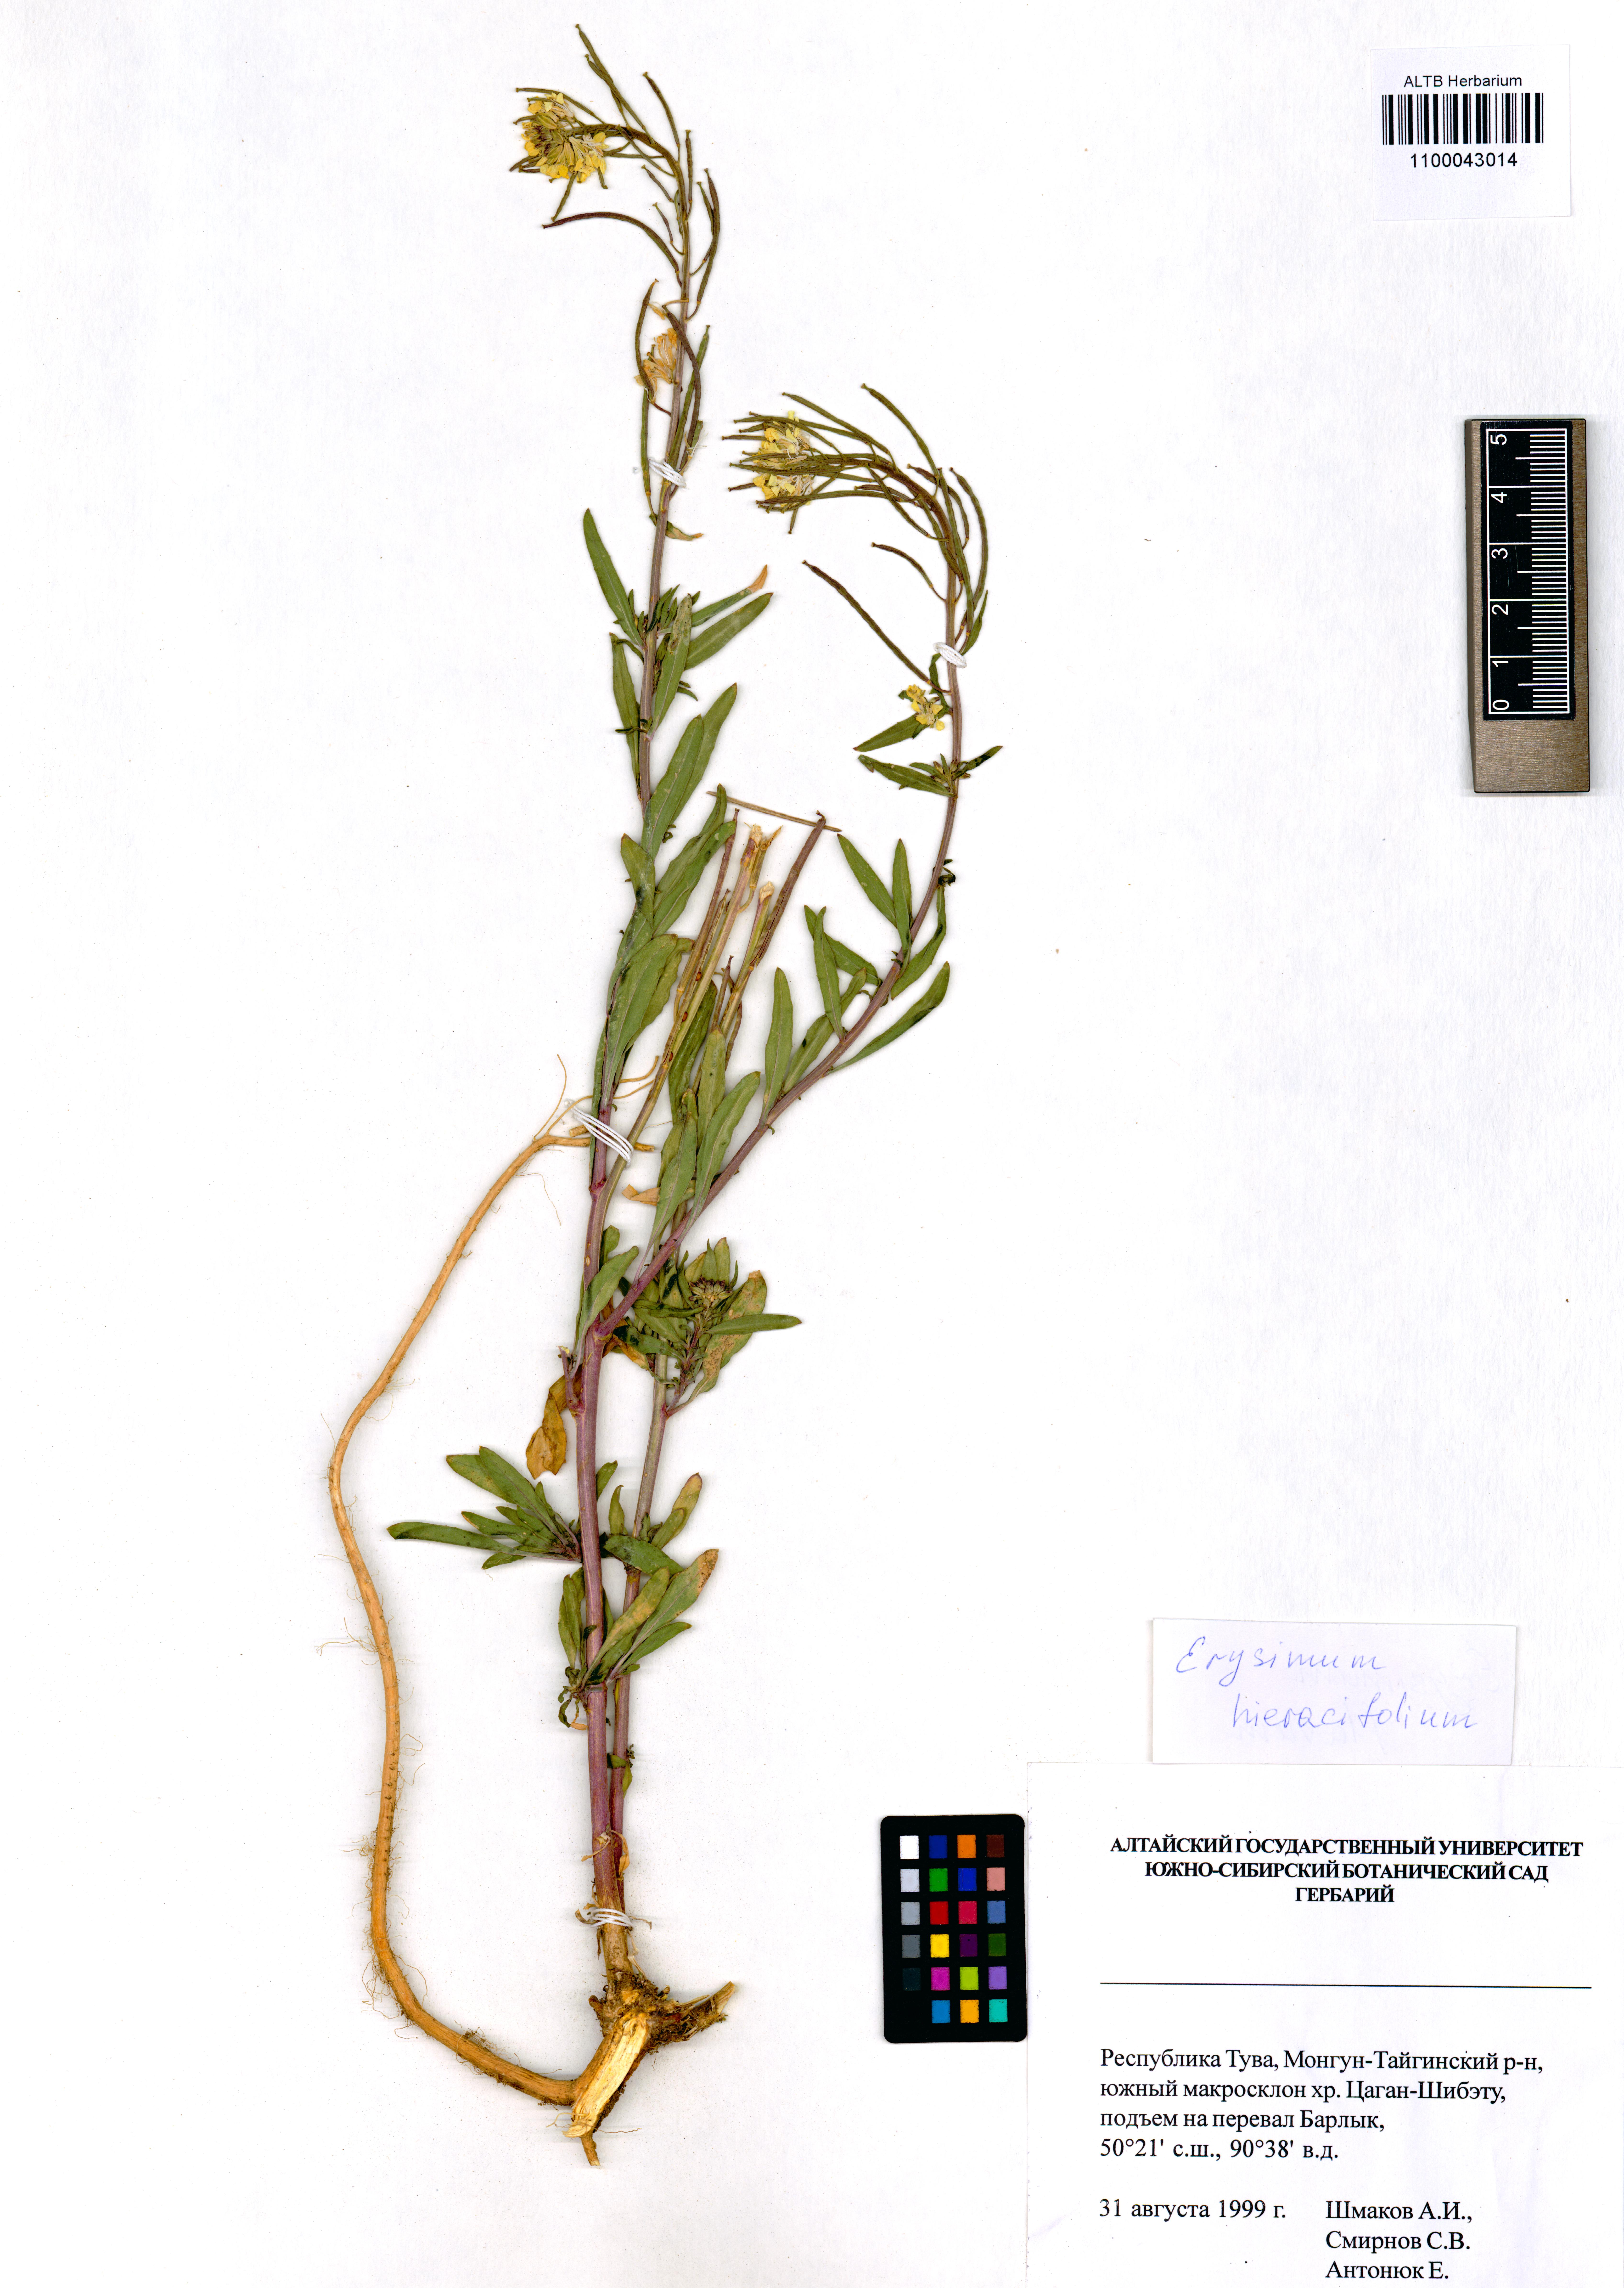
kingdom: Plantae
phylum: Tracheophyta
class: Magnoliopsida
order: Brassicales
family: Brassicaceae
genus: Erysimum
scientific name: Erysimum hieraciifolium
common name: European wallflower
